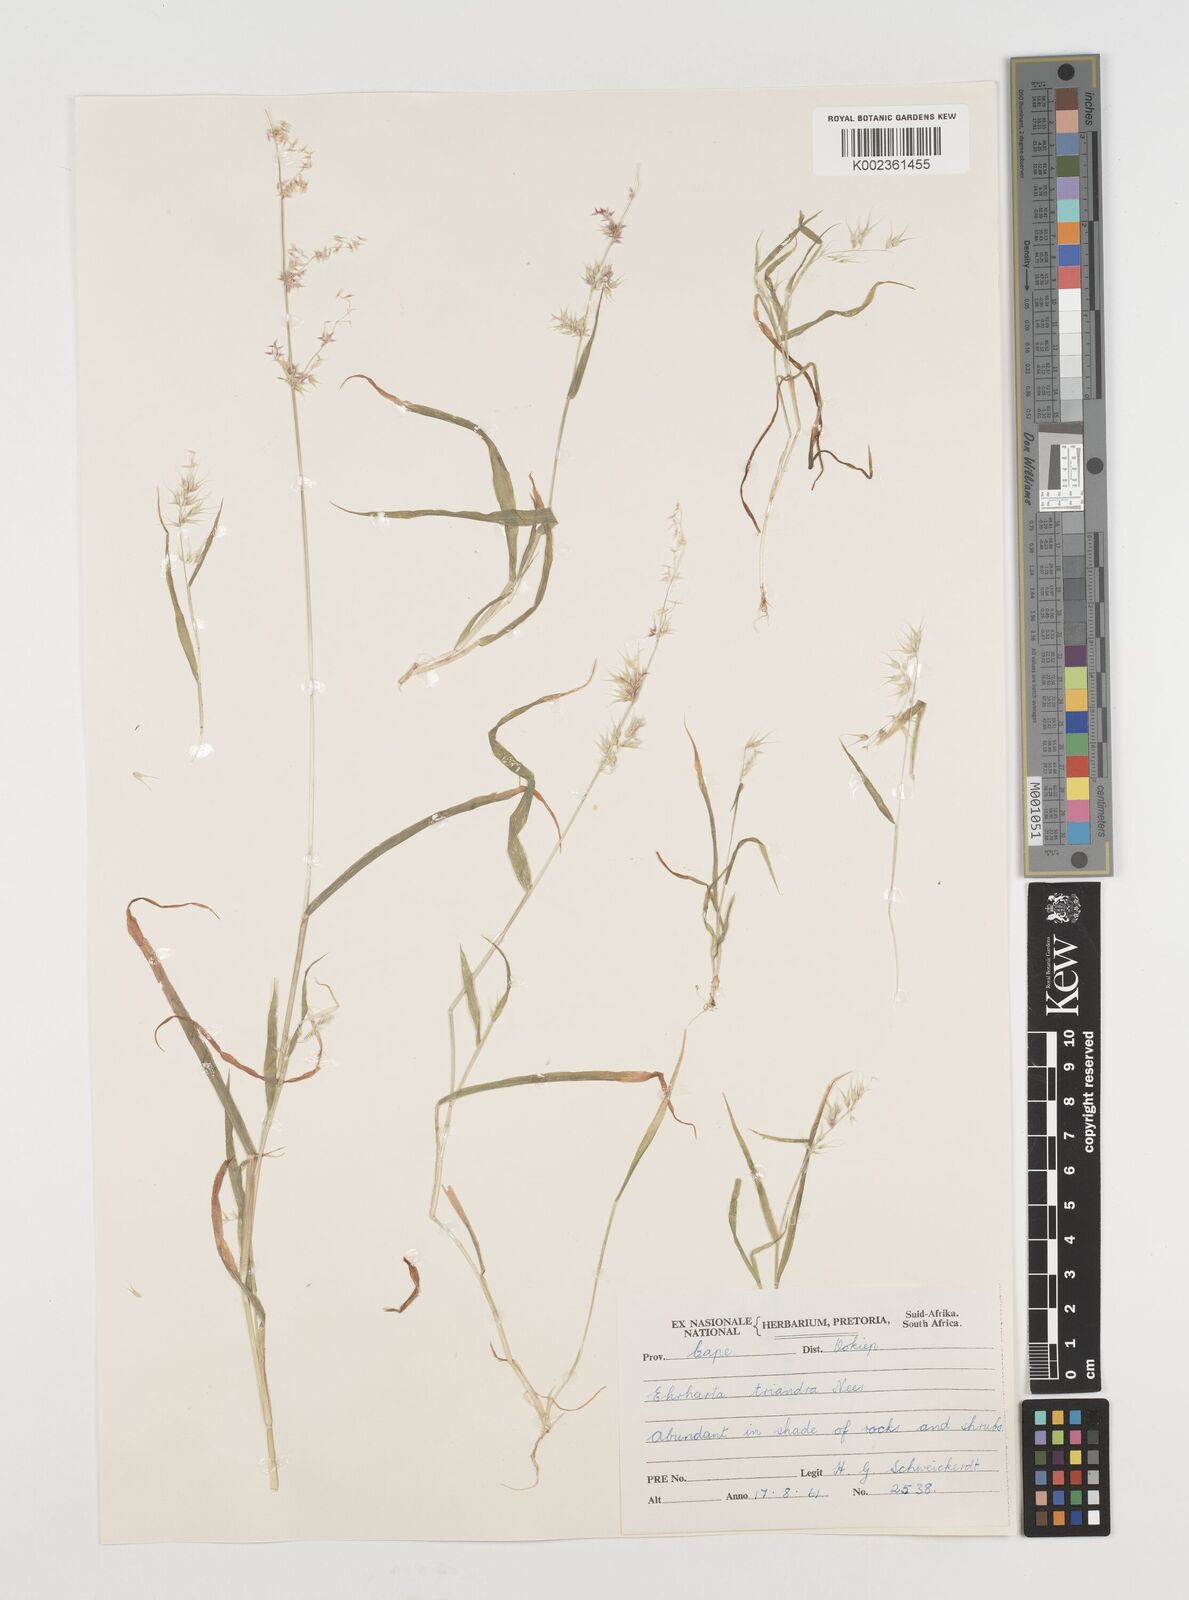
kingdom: Plantae
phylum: Tracheophyta
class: Liliopsida
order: Poales
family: Poaceae
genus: Ehrharta
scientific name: Ehrharta triandra
